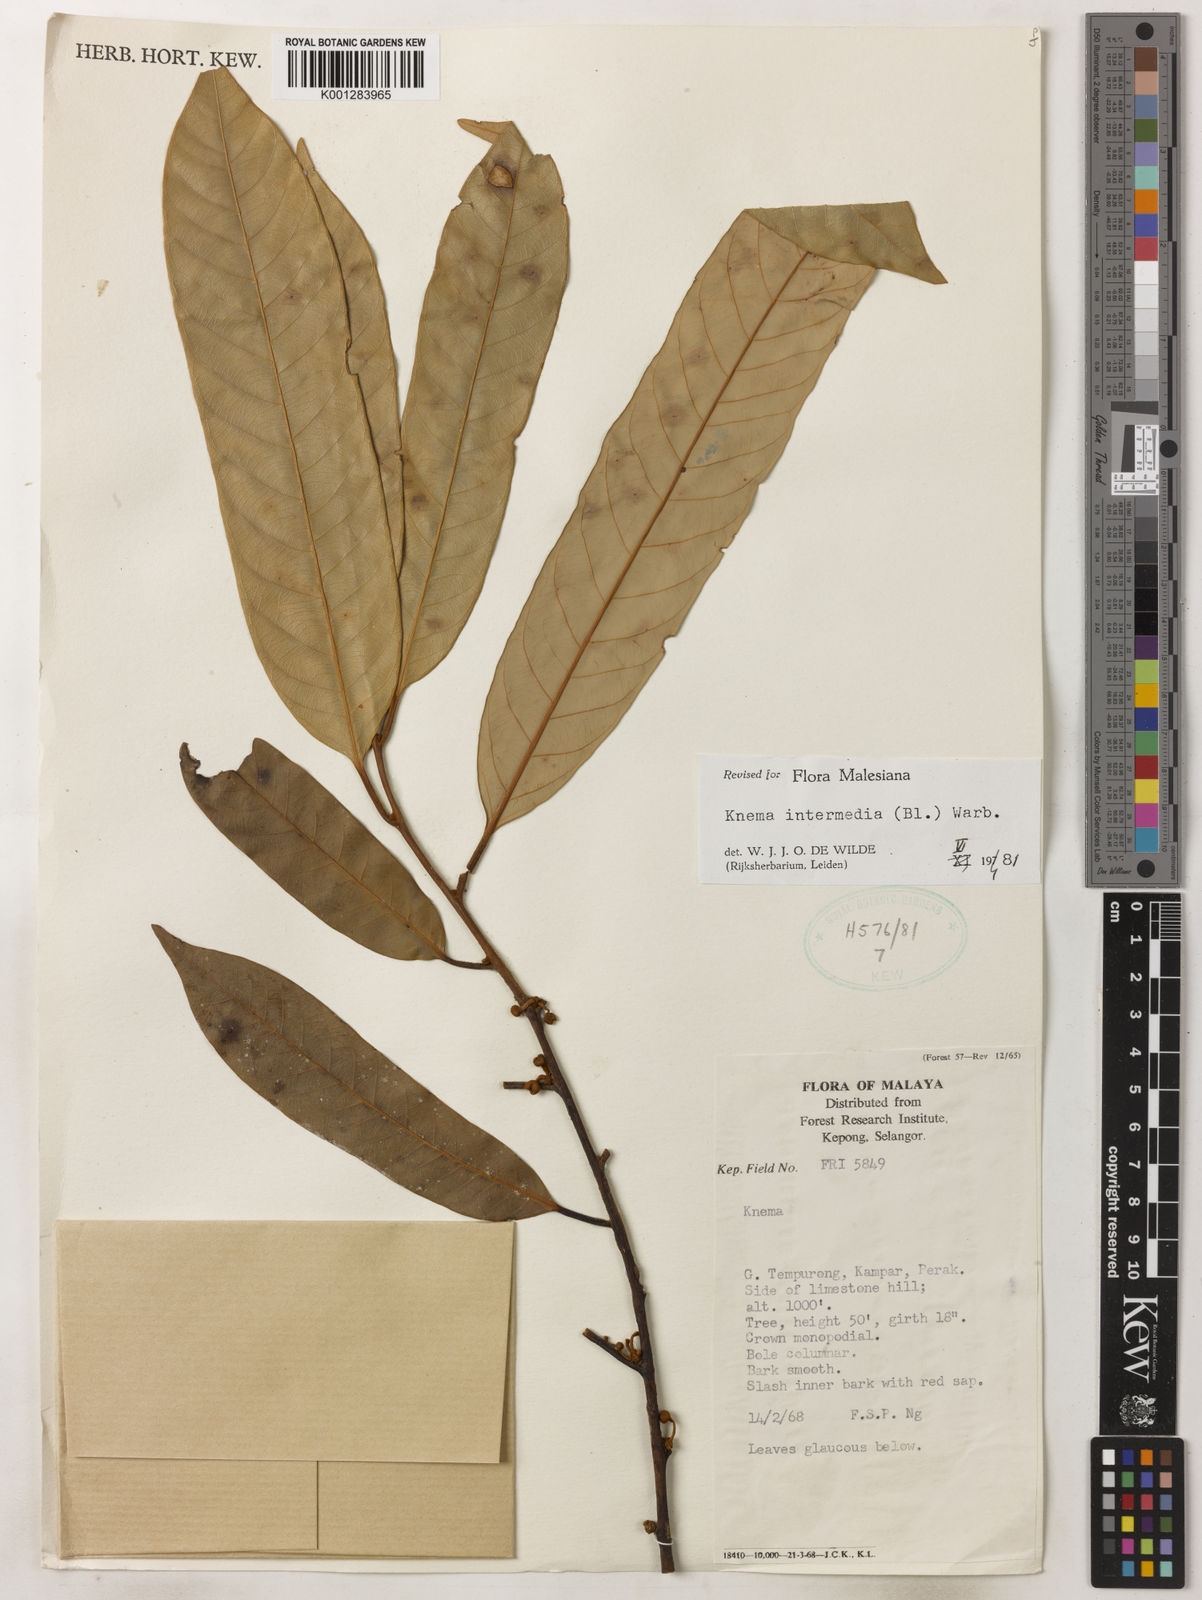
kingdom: Plantae
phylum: Tracheophyta
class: Magnoliopsida
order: Magnoliales
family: Myristicaceae
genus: Knema
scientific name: Knema intermedia
